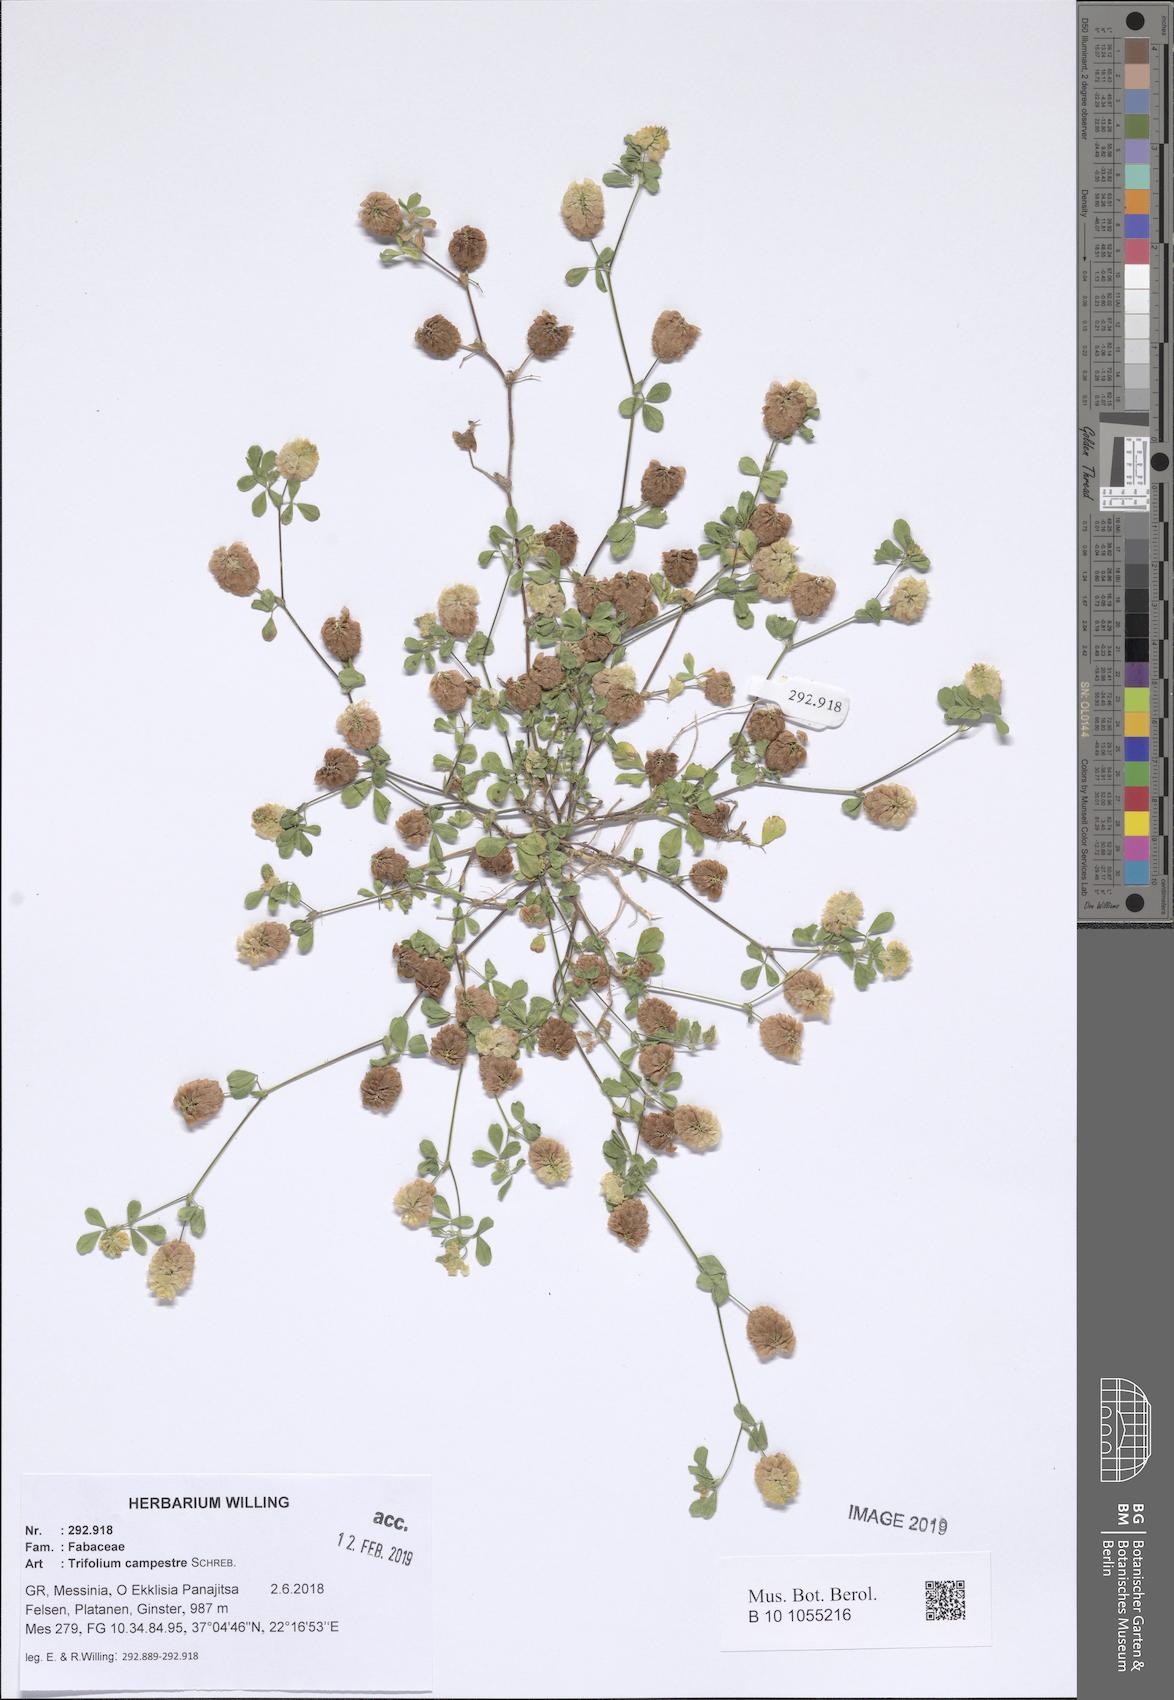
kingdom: Plantae
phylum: Tracheophyta
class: Magnoliopsida
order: Fabales
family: Fabaceae
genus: Trifolium
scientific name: Trifolium campestre
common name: Field clover
